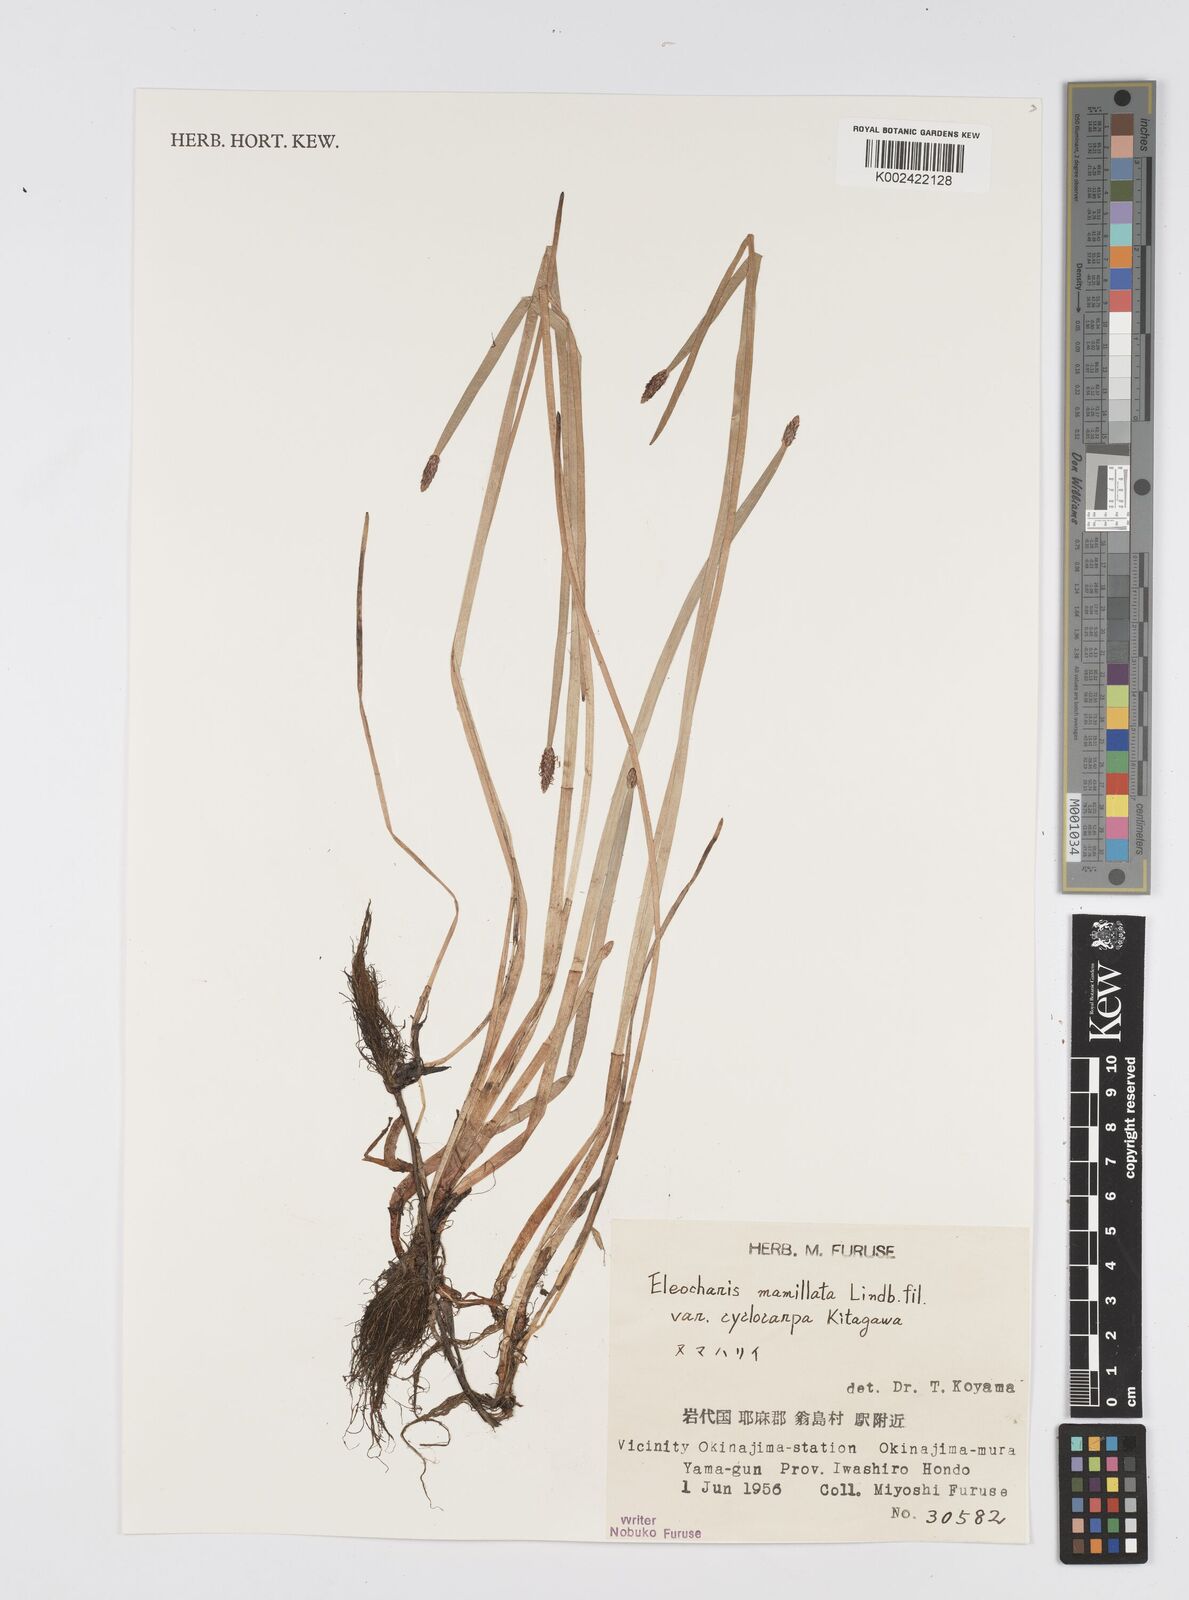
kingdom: Plantae
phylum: Tracheophyta
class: Liliopsida
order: Poales
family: Cyperaceae
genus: Eleocharis
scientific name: Eleocharis mamillata
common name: Northern spike-rush
